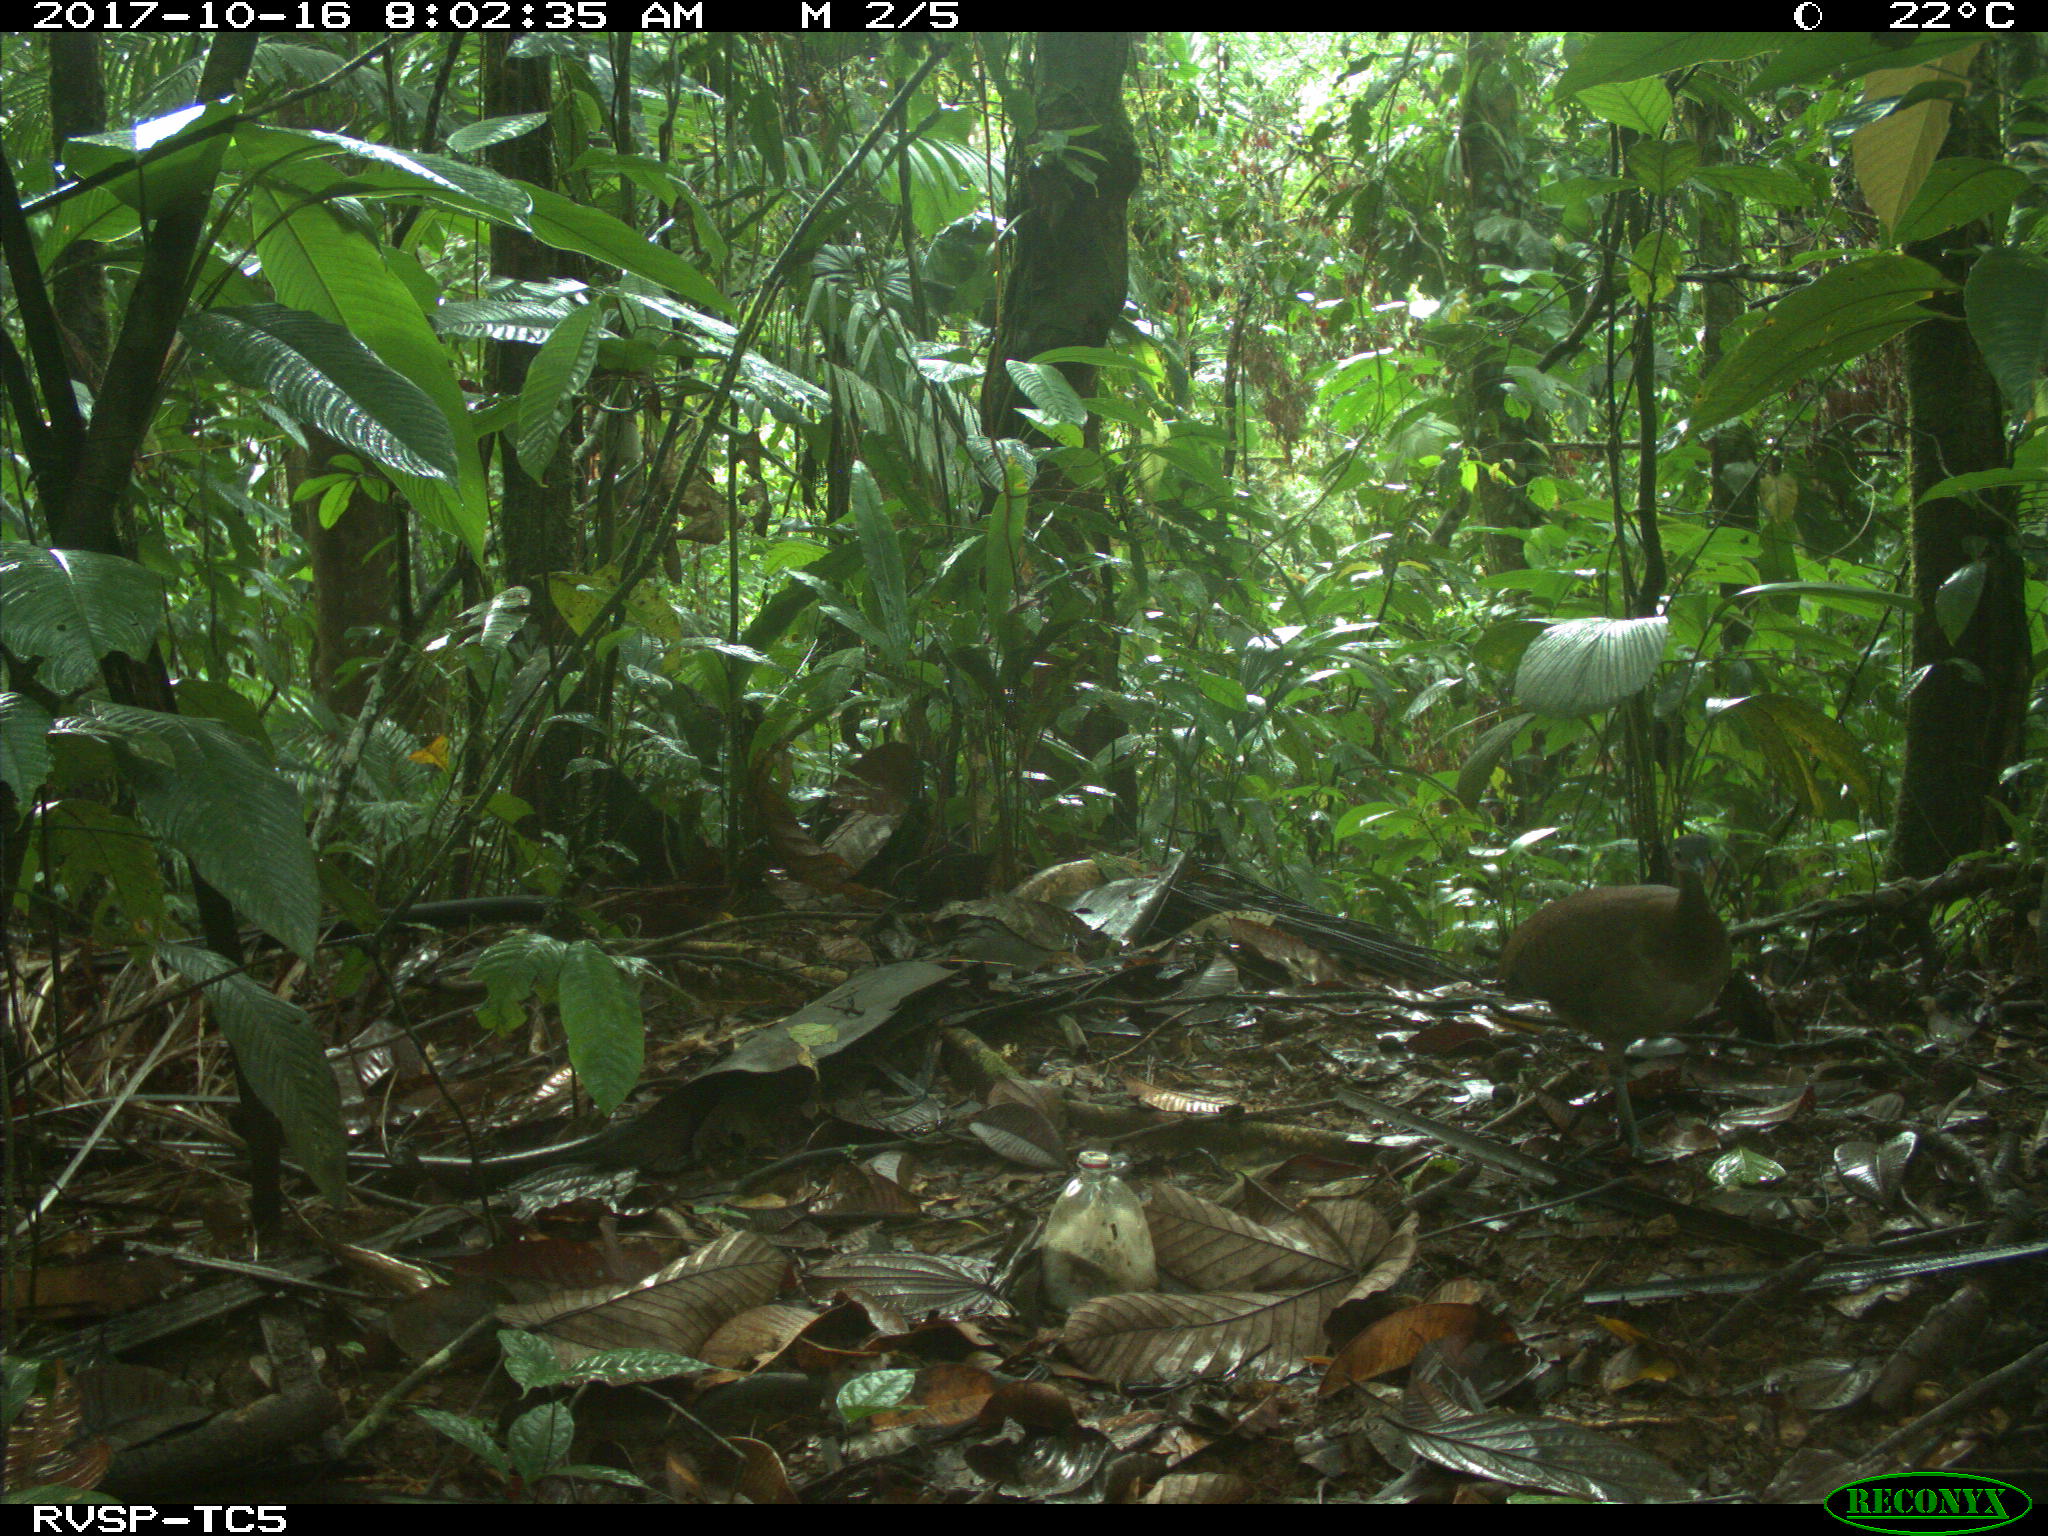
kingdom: Animalia
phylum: Chordata
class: Aves
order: Tinamiformes
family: Tinamidae
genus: Tinamus
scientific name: Tinamus major
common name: Great tinamou
